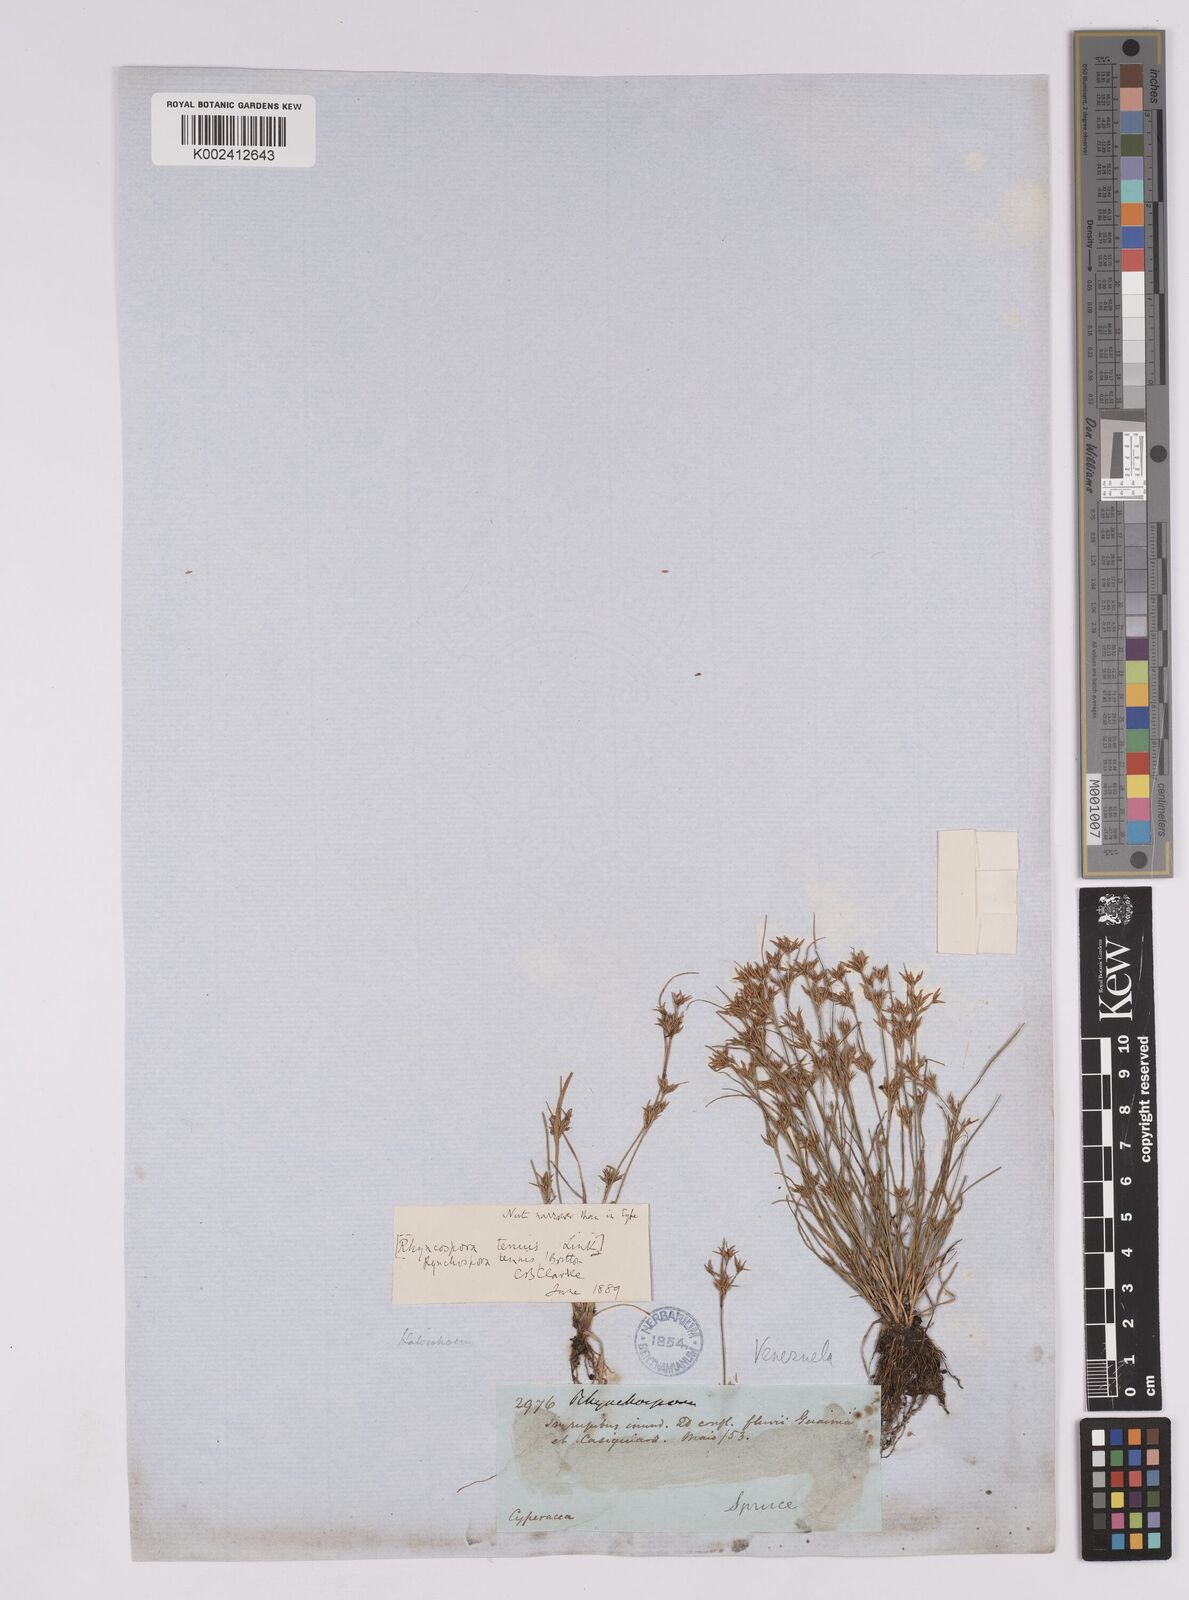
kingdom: Plantae
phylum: Tracheophyta
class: Liliopsida
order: Poales
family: Cyperaceae
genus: Rhynchospora
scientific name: Rhynchospora radicans
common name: Tropical whitetop
